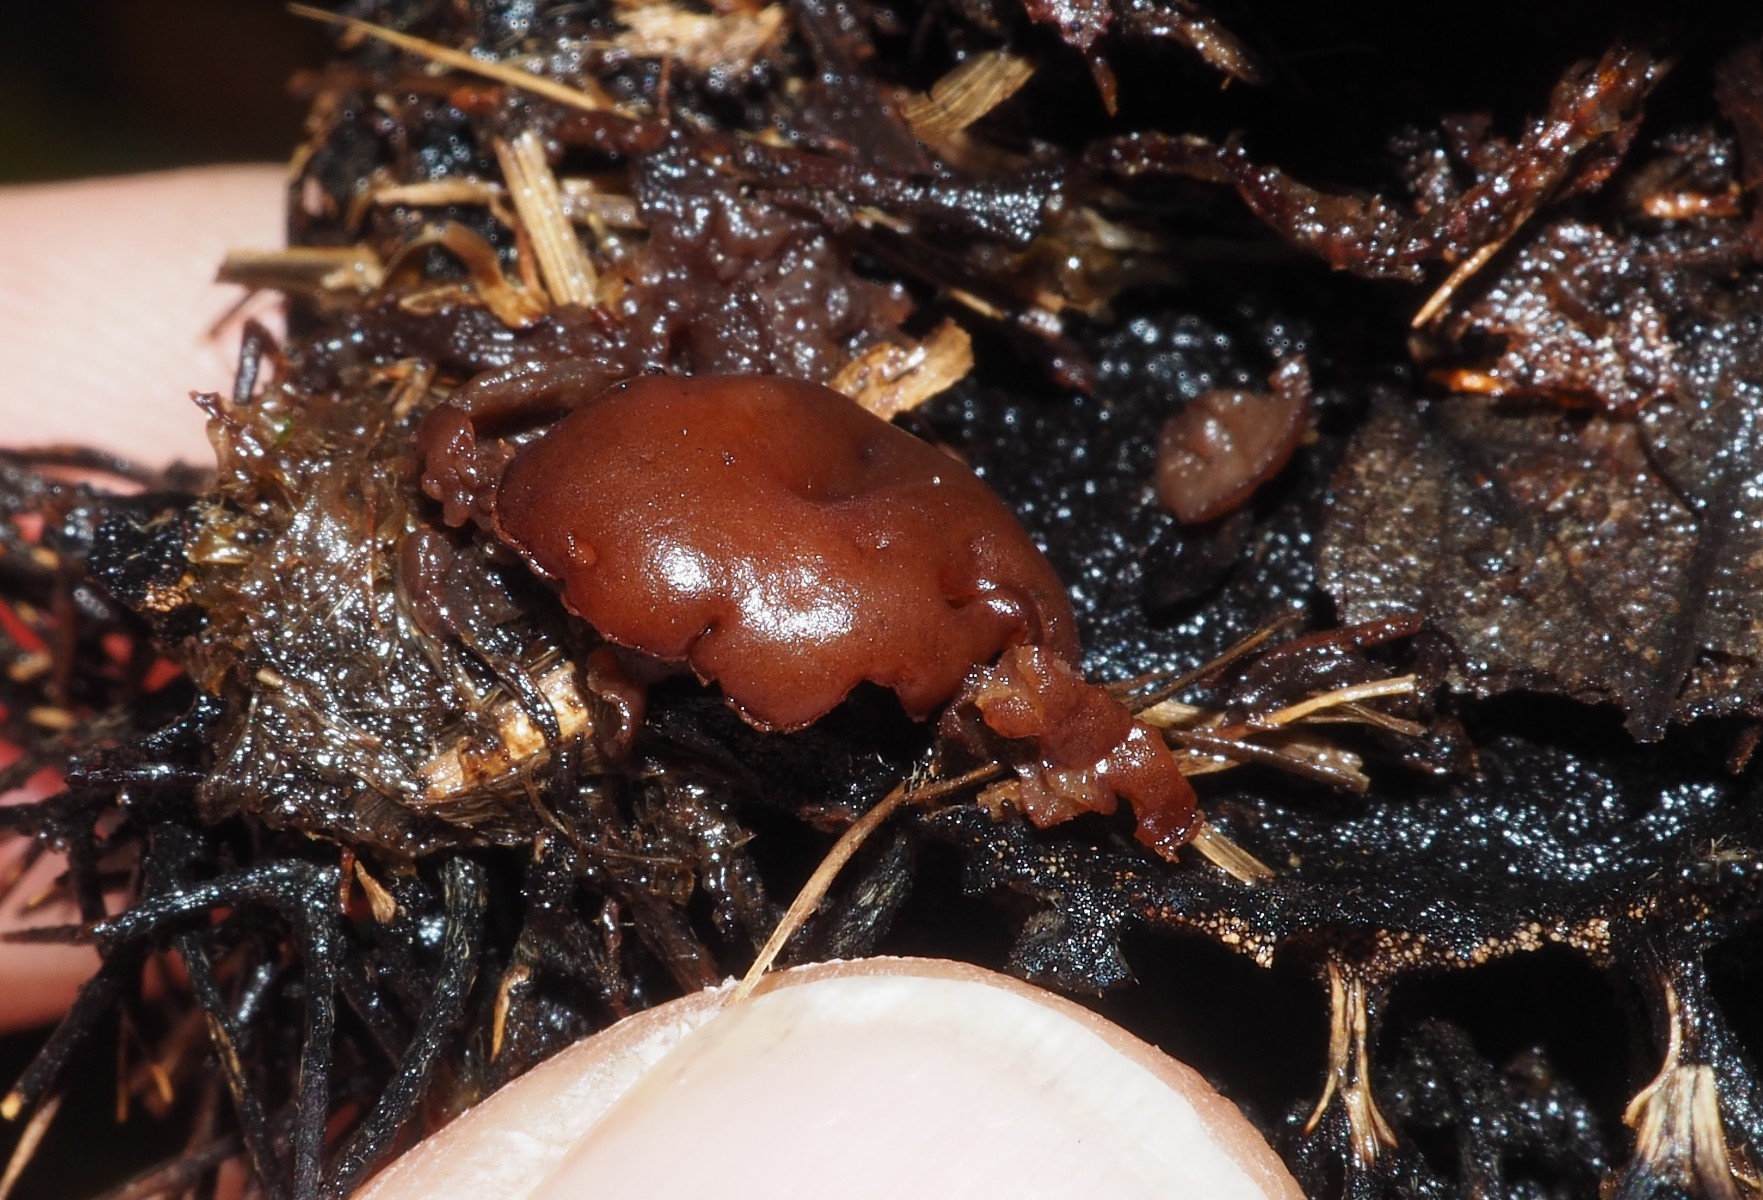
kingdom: Fungi
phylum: Ascomycota
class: Leotiomycetes
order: Helotiales
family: Rutstroemiaceae
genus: Lanzia
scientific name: Lanzia echinophila
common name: kastanie-brunskive
